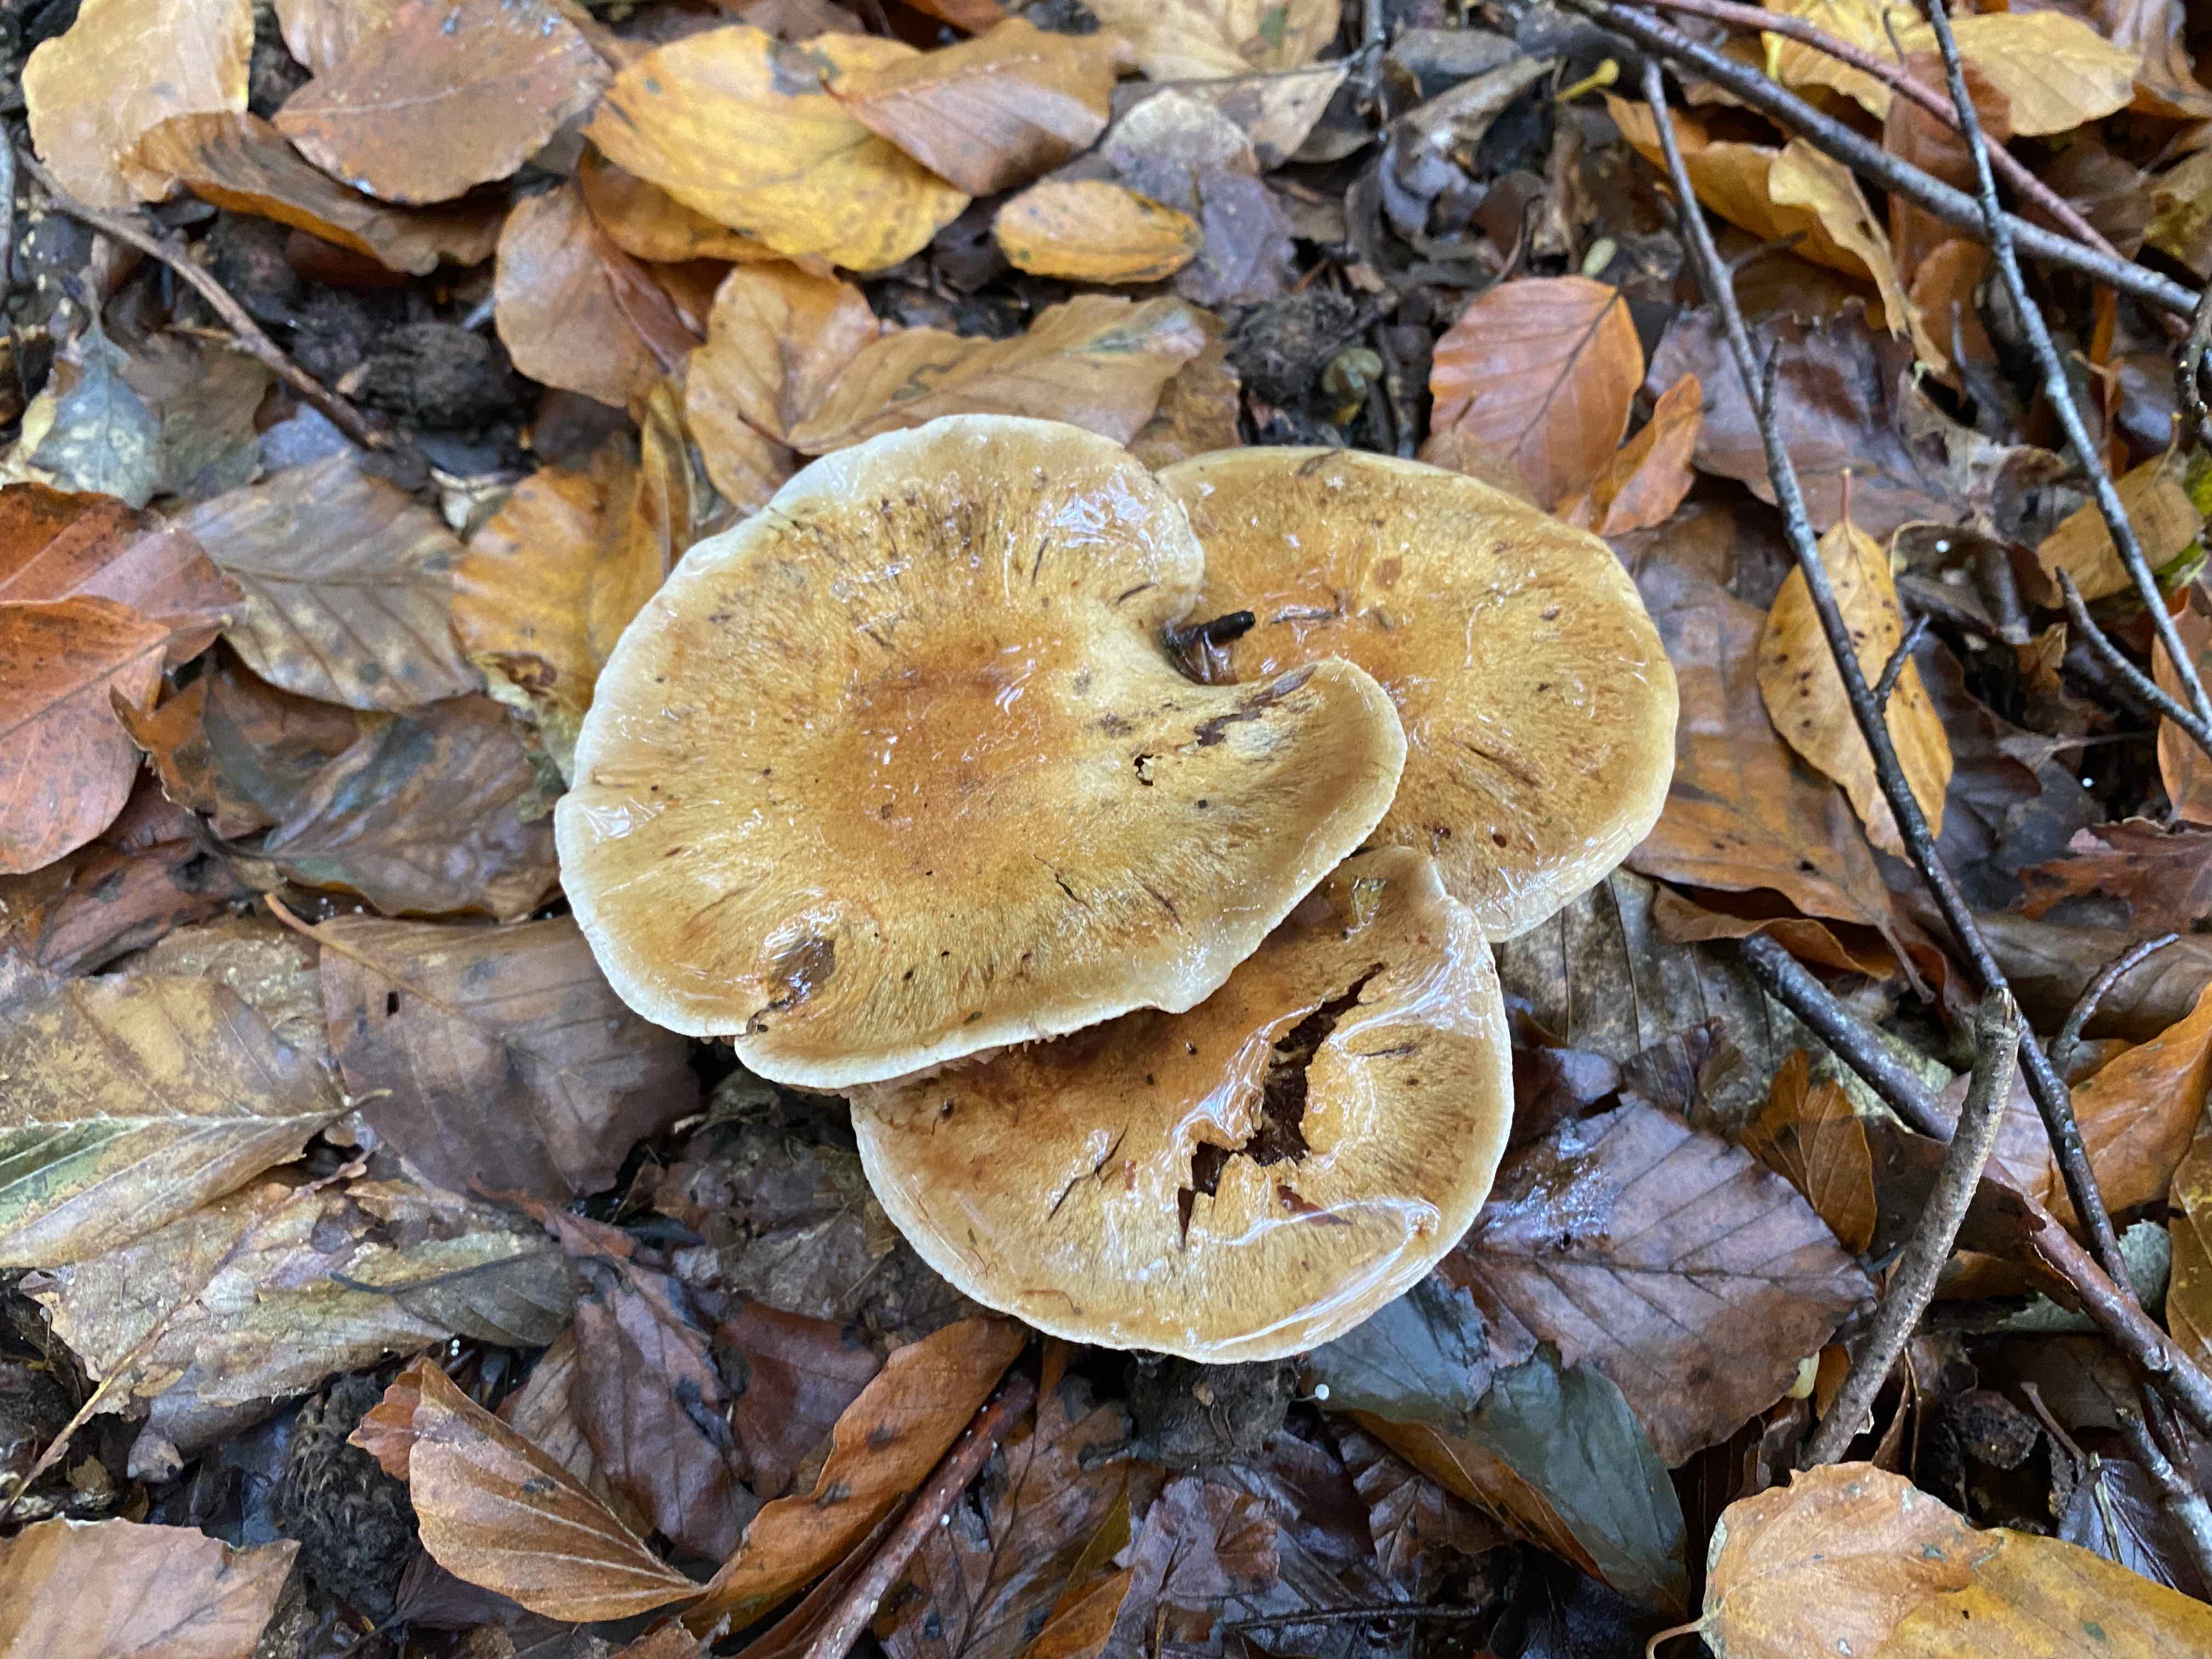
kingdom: Fungi
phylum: Basidiomycota
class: Agaricomycetes
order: Agaricales
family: Cortinariaceae
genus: Thaxterogaster
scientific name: Thaxterogaster subpurpurascens
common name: mørkblånende slørhat
